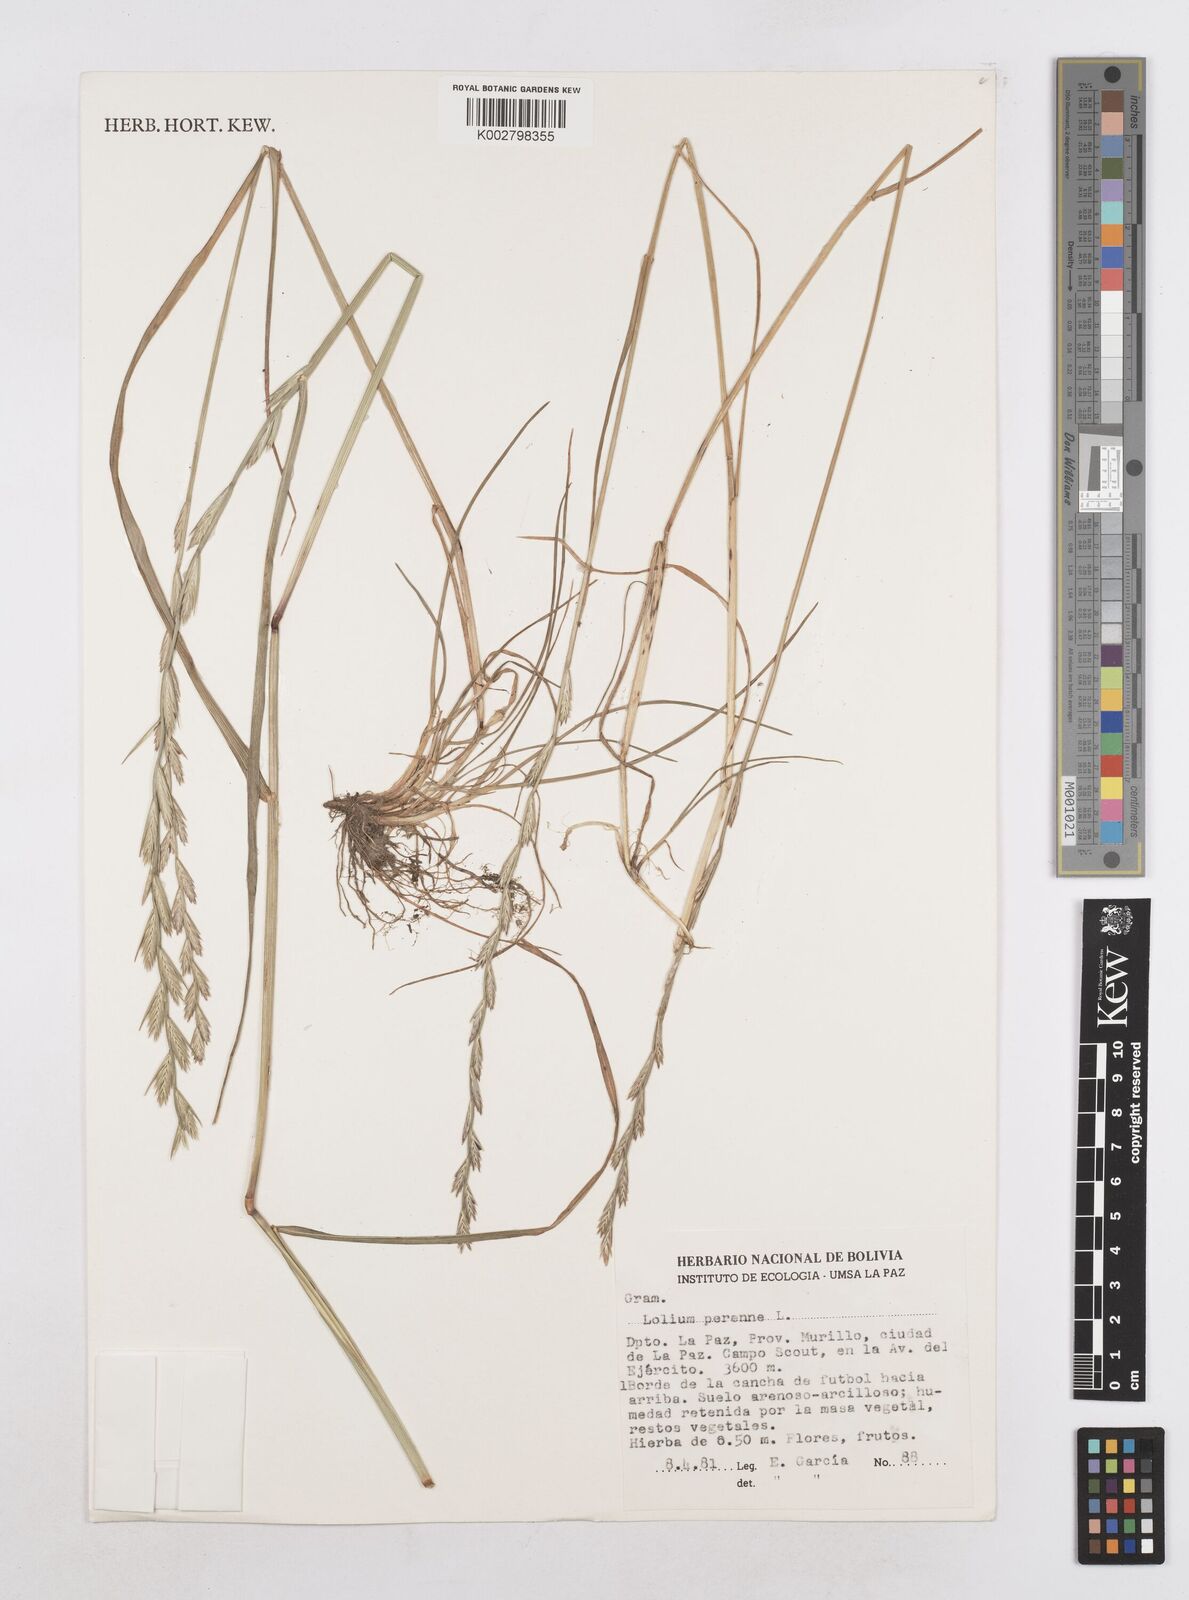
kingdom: Plantae
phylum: Tracheophyta
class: Liliopsida
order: Poales
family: Poaceae
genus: Lolium
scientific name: Lolium perenne
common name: Perennial ryegrass
